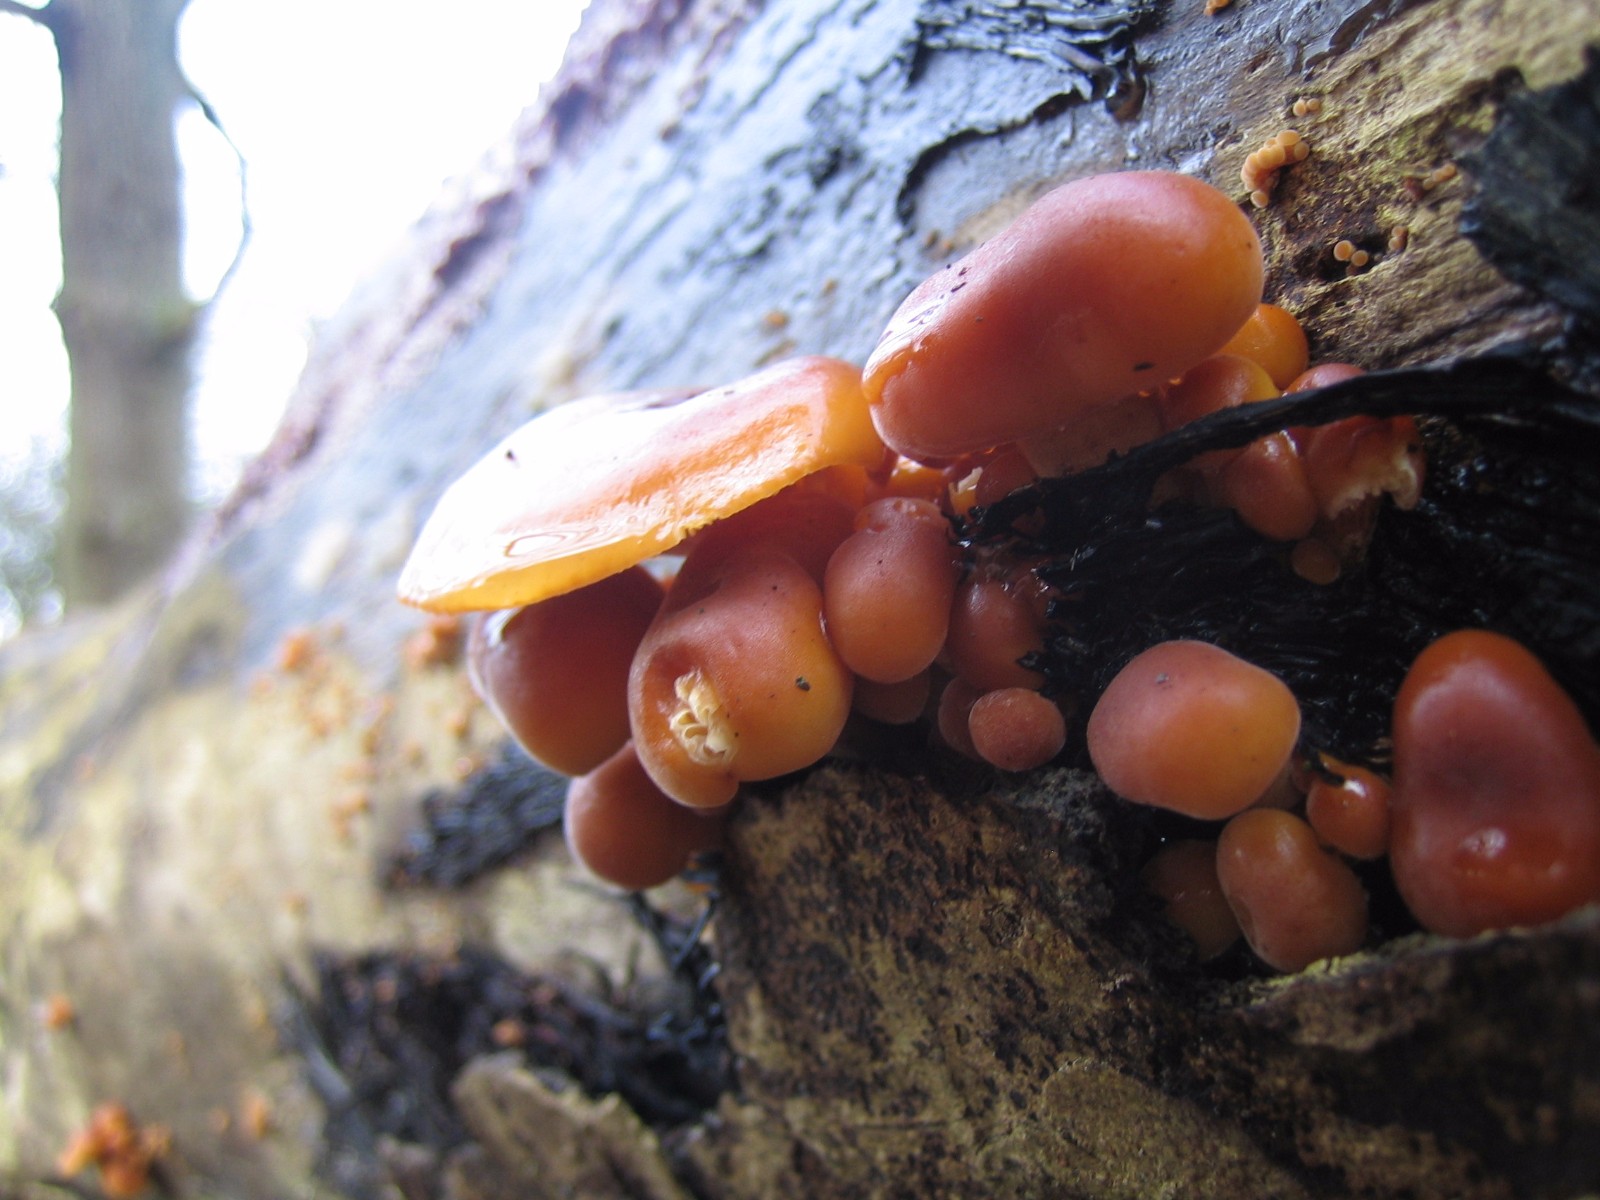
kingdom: Fungi
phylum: Basidiomycota
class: Agaricomycetes
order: Agaricales
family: Physalacriaceae
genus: Flammulina
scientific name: Flammulina velutipes
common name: gul fløjlsfod
